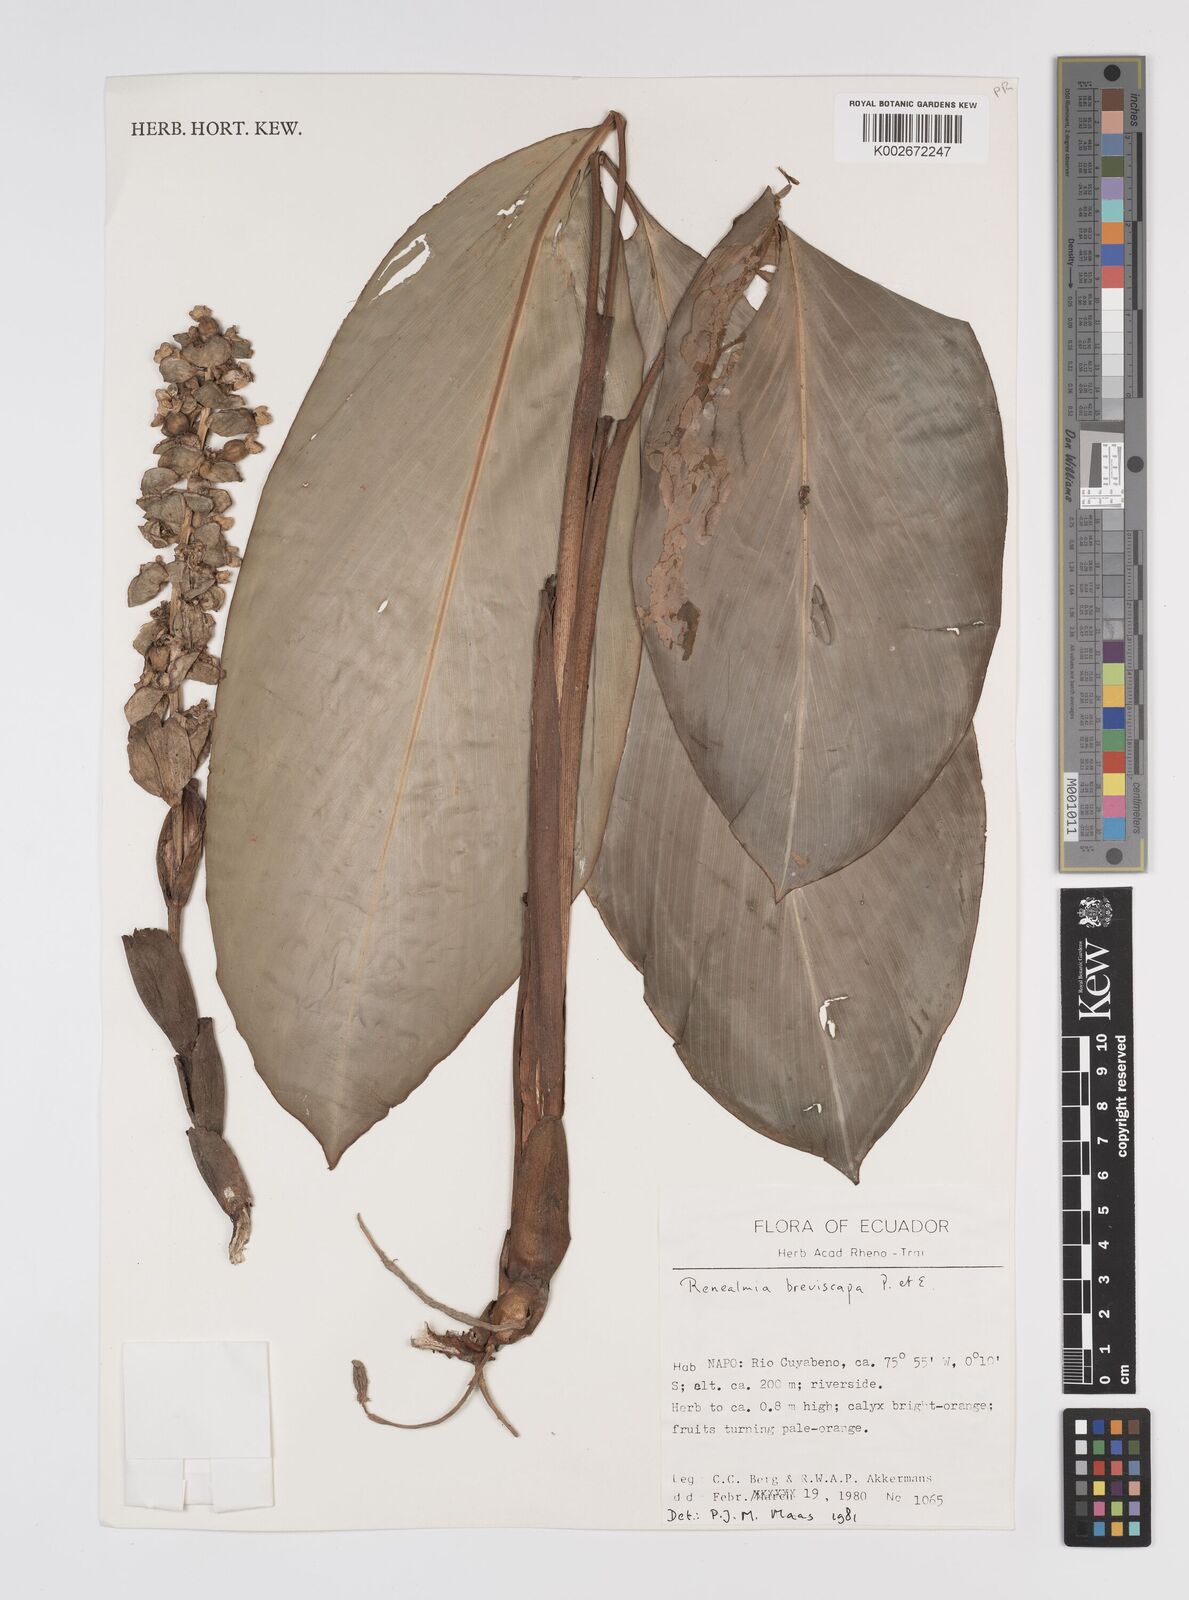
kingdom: Plantae
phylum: Tracheophyta
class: Liliopsida
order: Zingiberales
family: Zingiberaceae
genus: Renealmia
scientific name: Renealmia breviscapa
